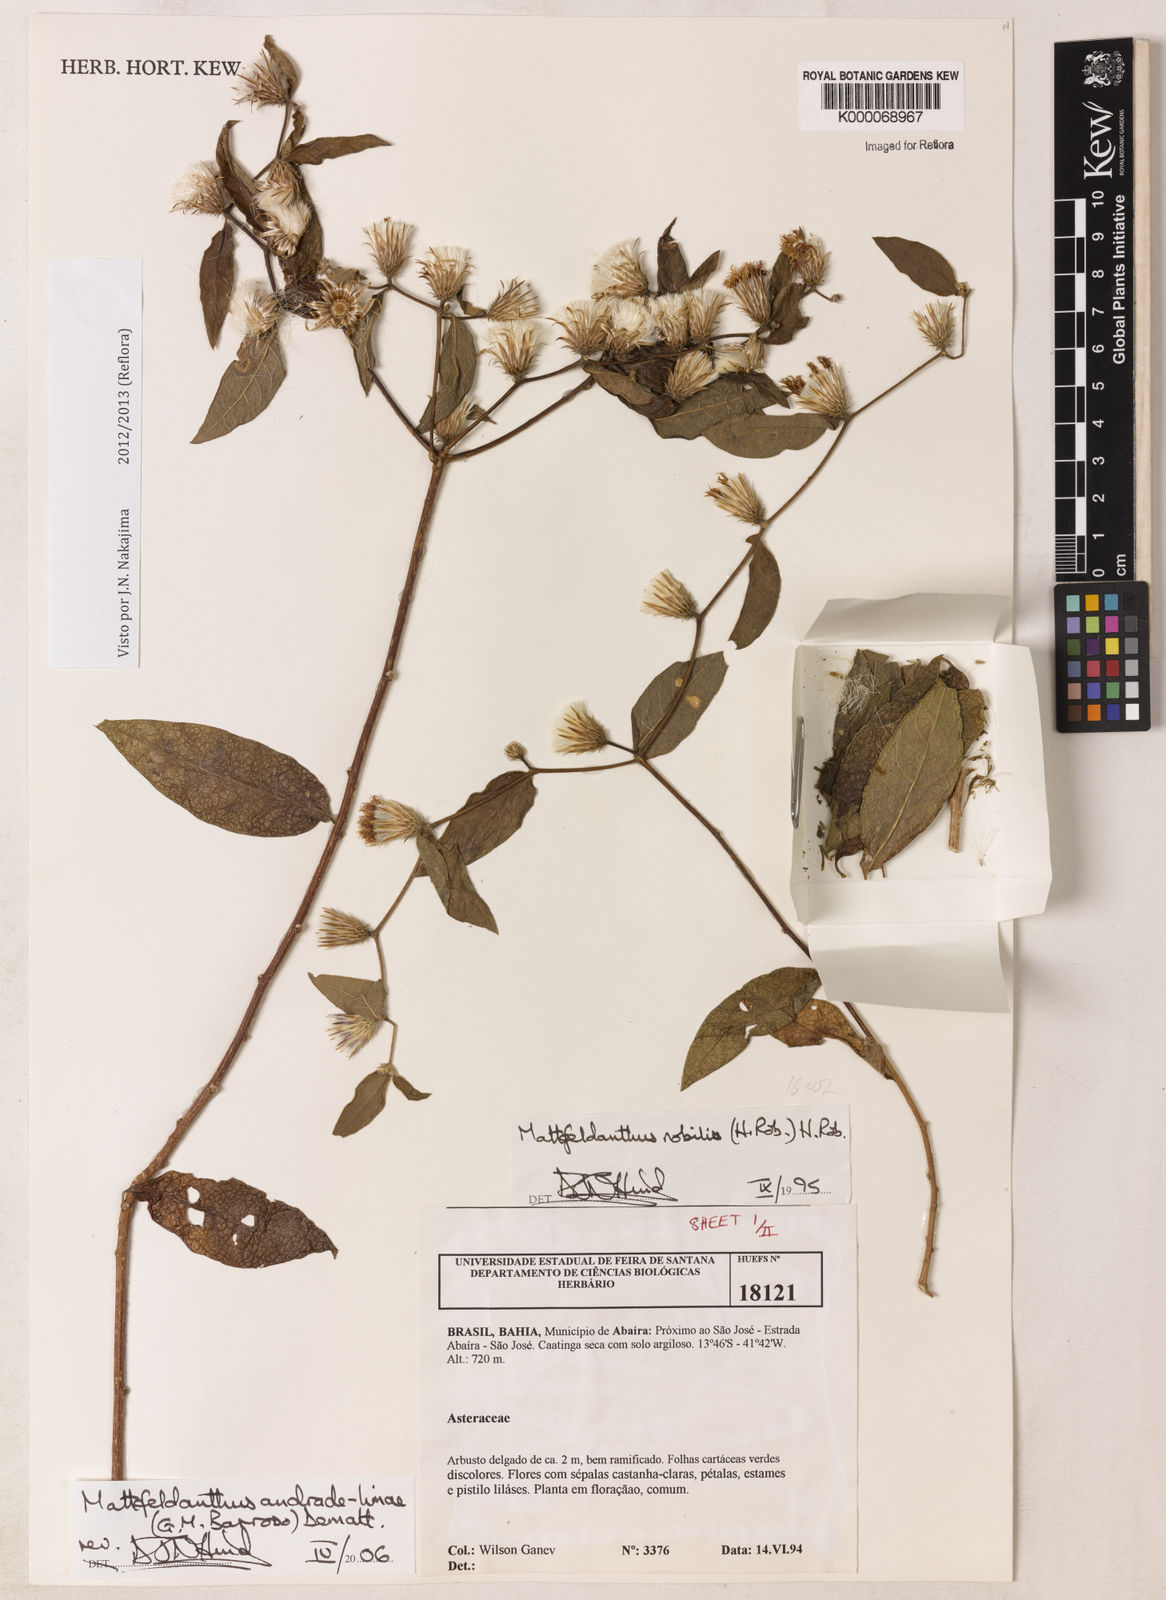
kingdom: Plantae
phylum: Tracheophyta
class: Magnoliopsida
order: Asterales
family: Asteraceae
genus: Mattfeldanthus
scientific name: Mattfeldanthus andrade-limae
